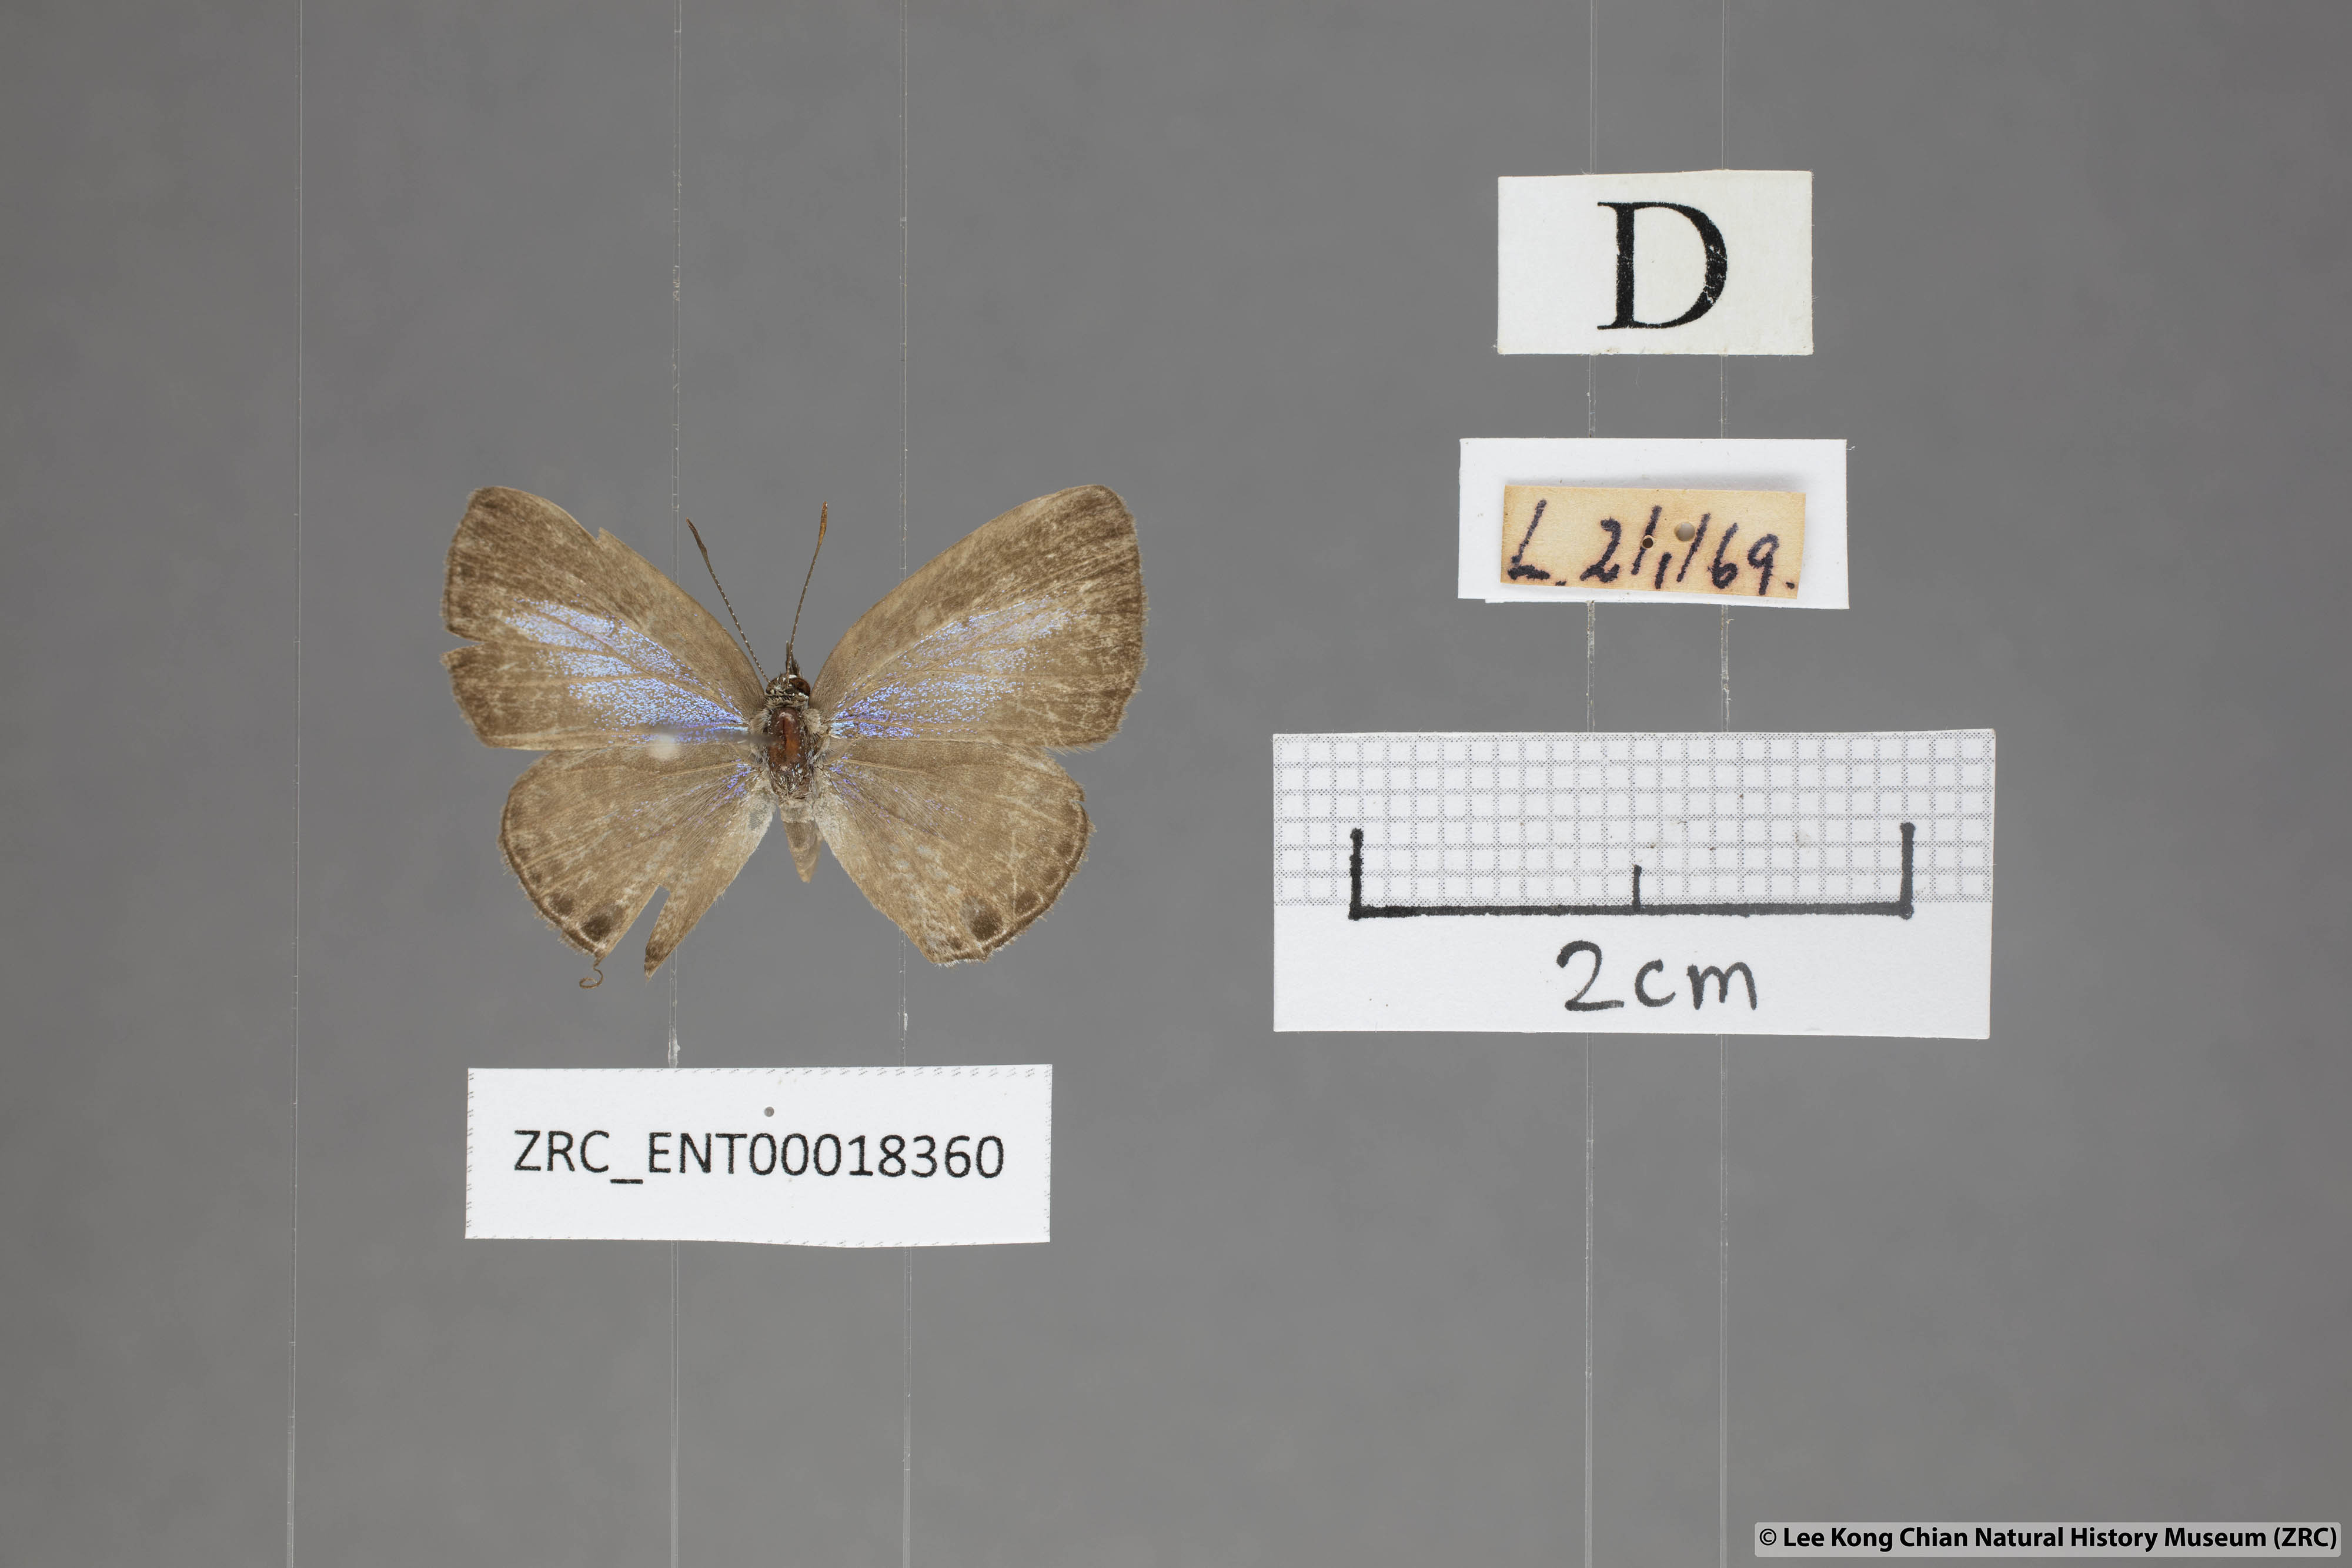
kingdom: Animalia
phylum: Arthropoda
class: Insecta
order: Lepidoptera
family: Lycaenidae
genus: Nacaduba
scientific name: Nacaduba hermus
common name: Pale four-line blue
